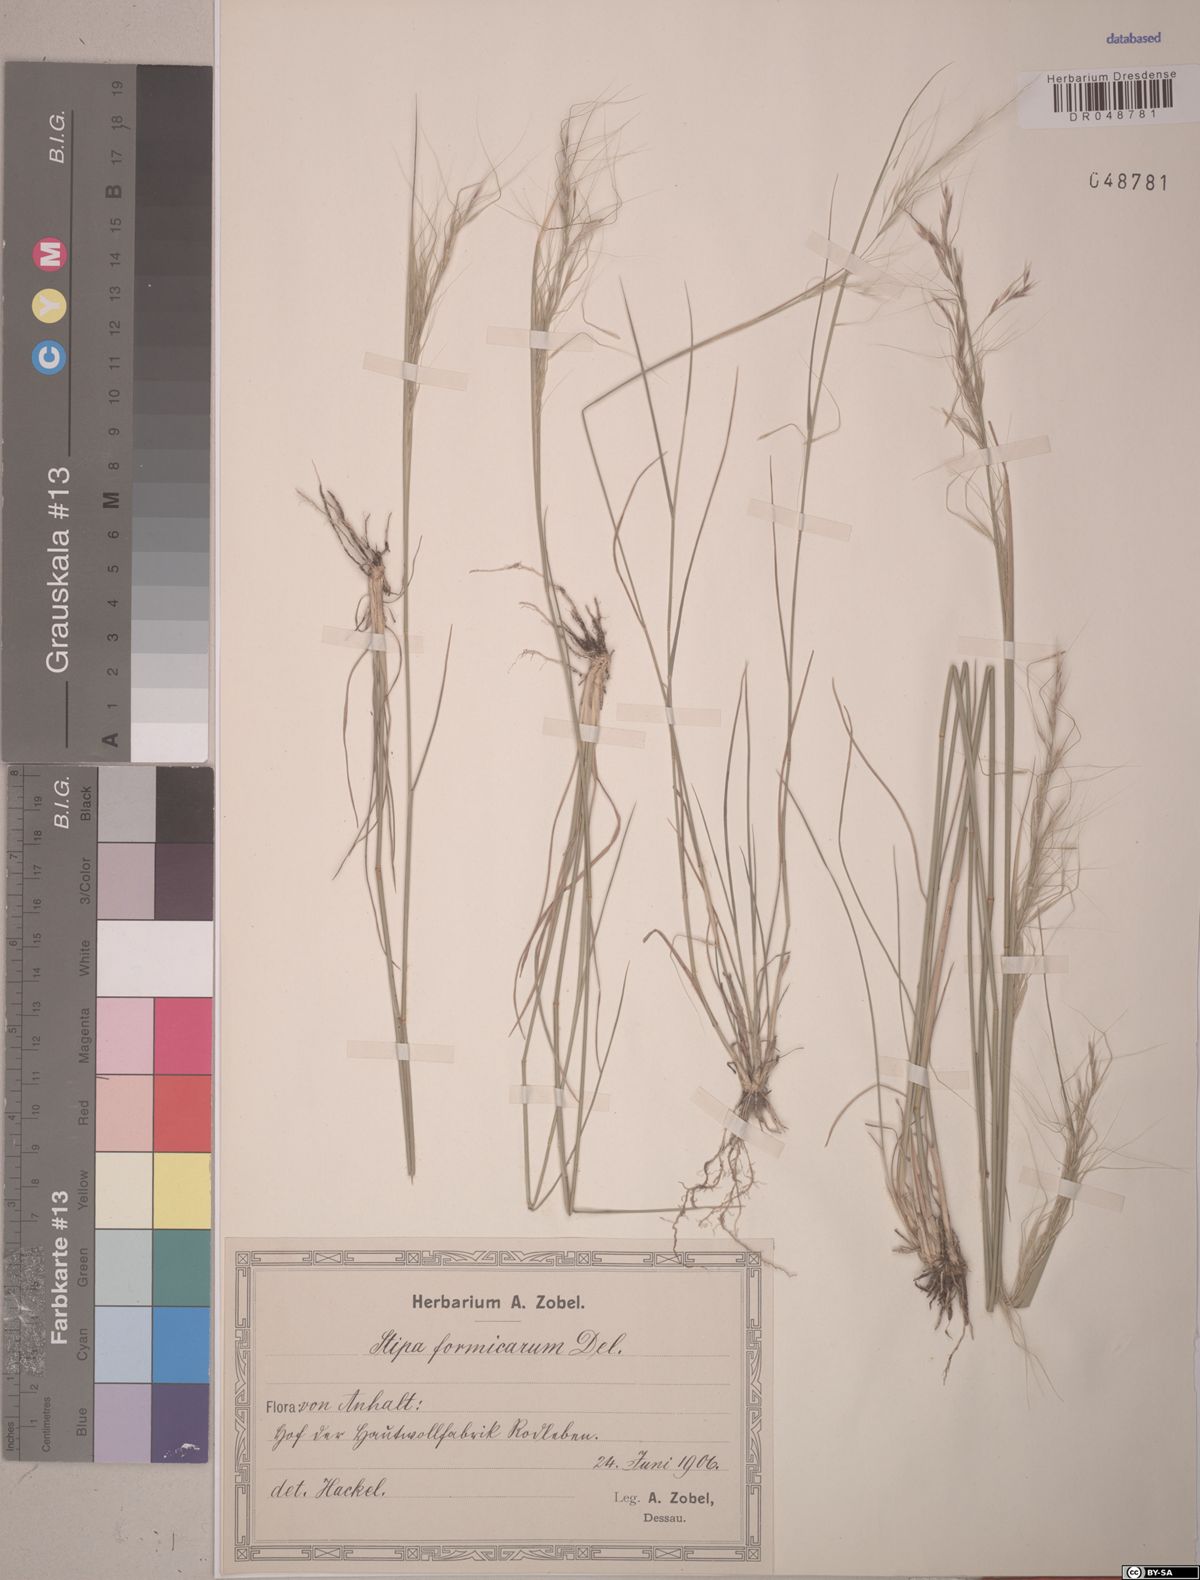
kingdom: Plantae
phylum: Tracheophyta
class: Liliopsida
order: Poales
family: Poaceae
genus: Nassella
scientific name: Nassella formicarum
